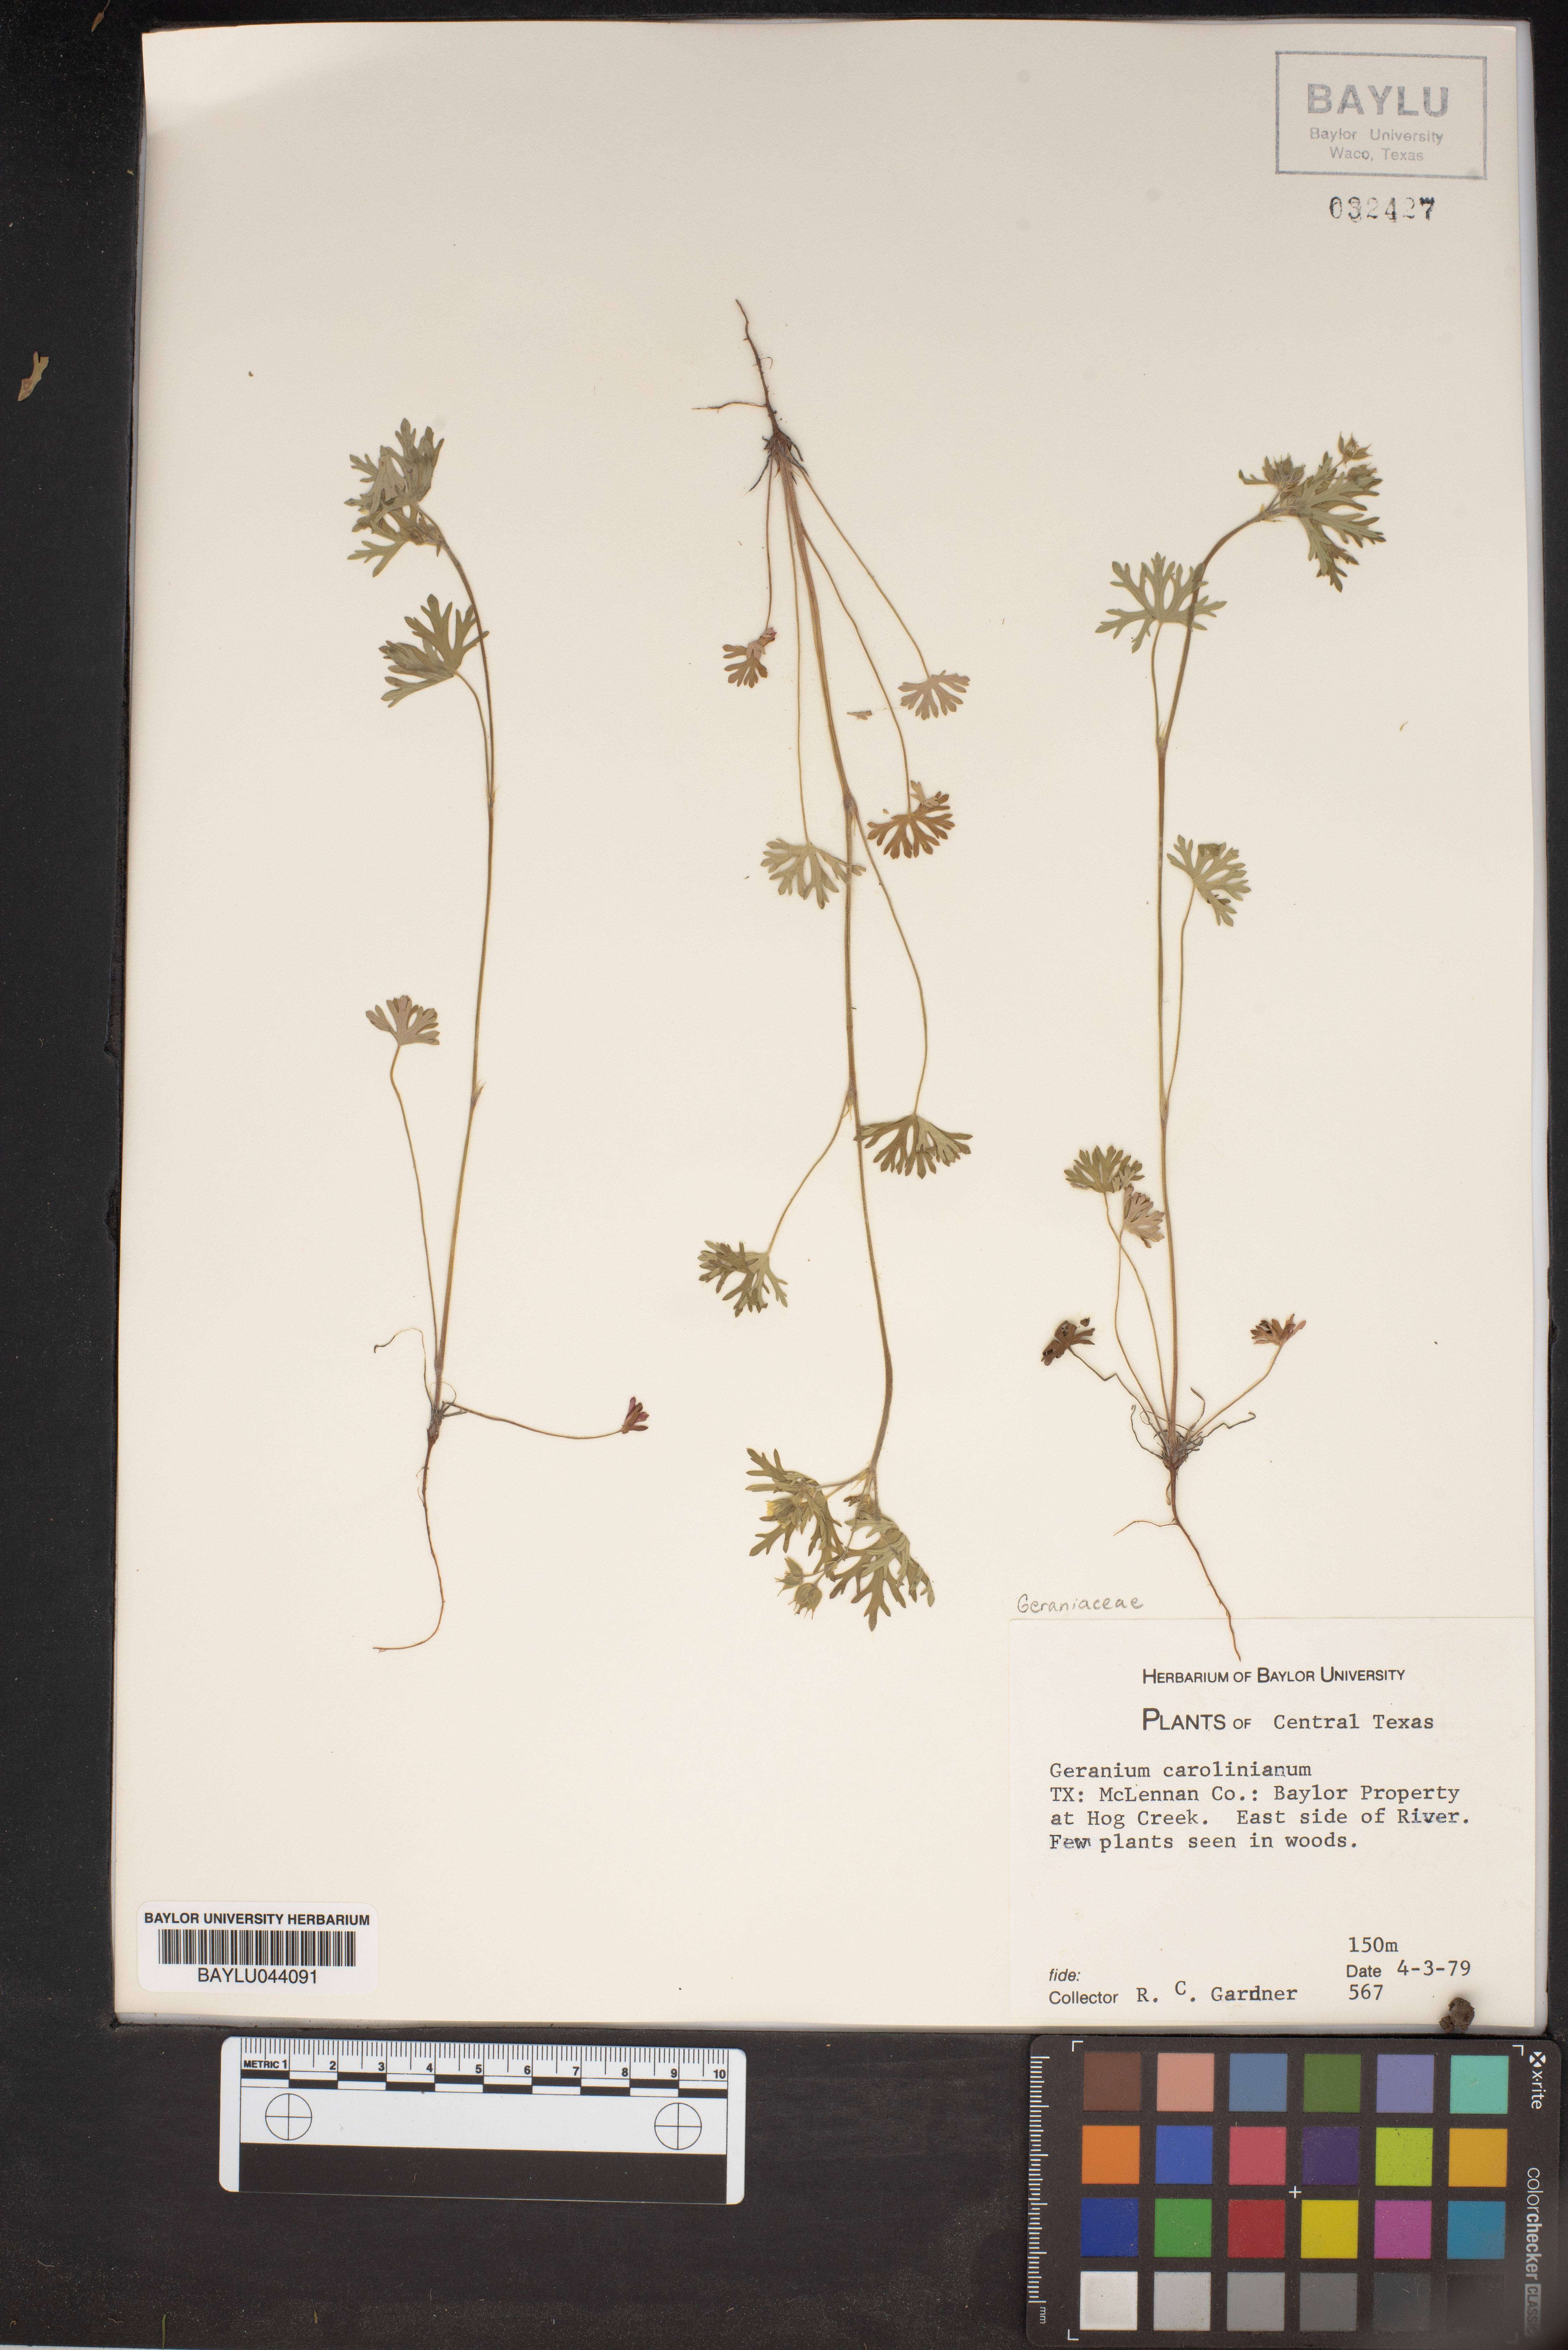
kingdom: Plantae
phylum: Tracheophyta
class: Magnoliopsida
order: Geraniales
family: Geraniaceae
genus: Geranium
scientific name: Geranium carolinianum
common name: Carolina crane's-bill
